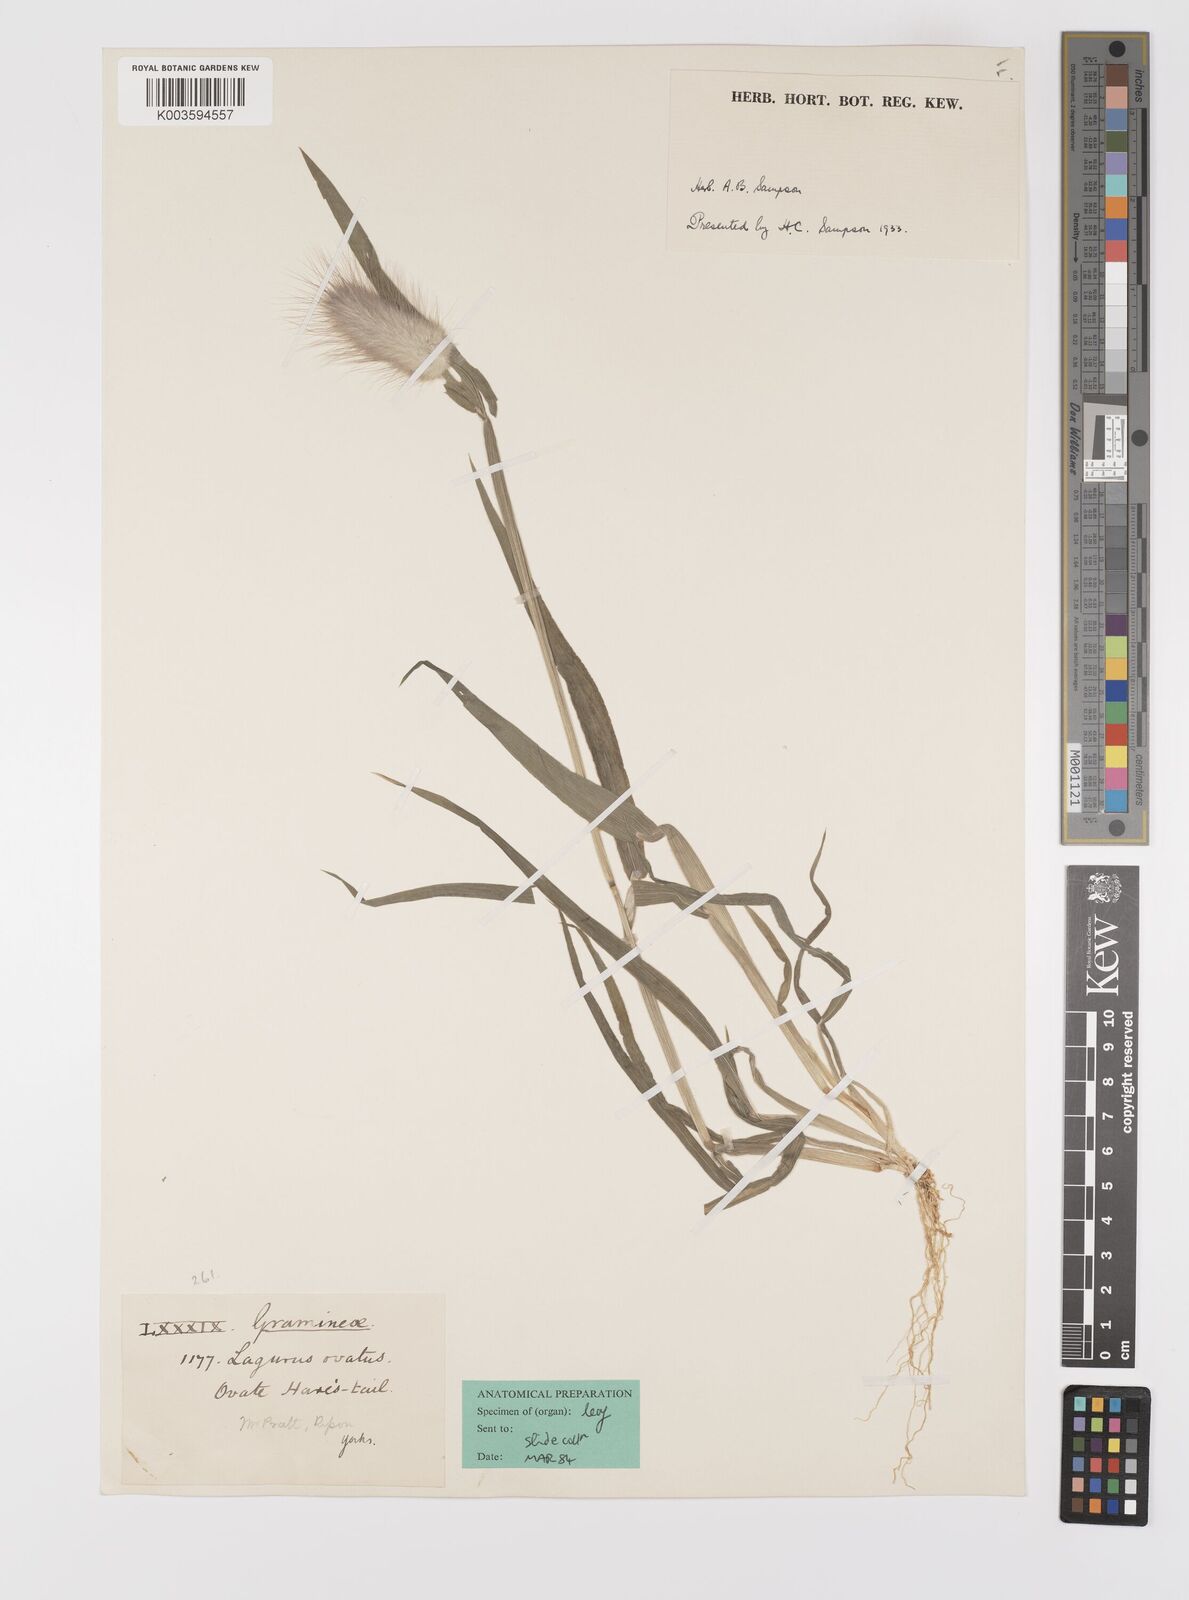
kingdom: Plantae
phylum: Tracheophyta
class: Liliopsida
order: Poales
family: Poaceae
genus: Lagurus
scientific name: Lagurus ovatus
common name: Hare's-tail
